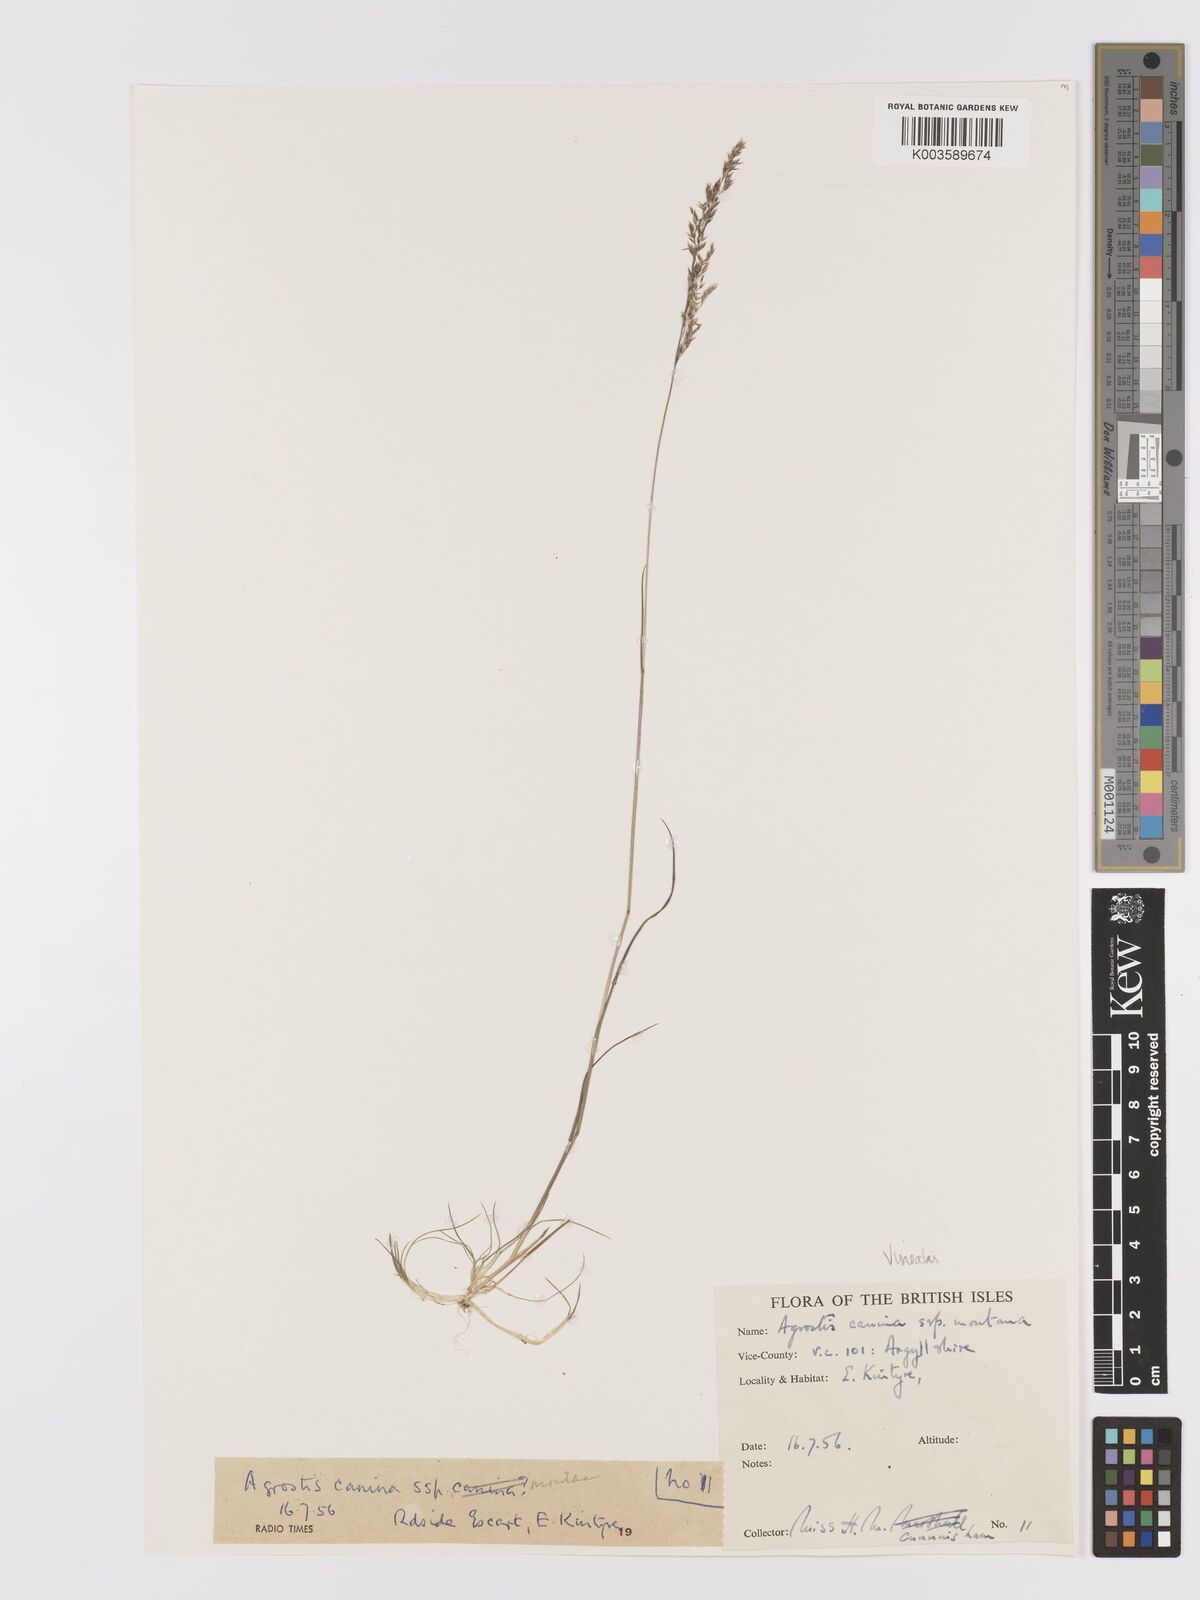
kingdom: Plantae
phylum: Tracheophyta
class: Liliopsida
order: Poales
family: Poaceae
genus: Agrostis
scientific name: Agrostis
